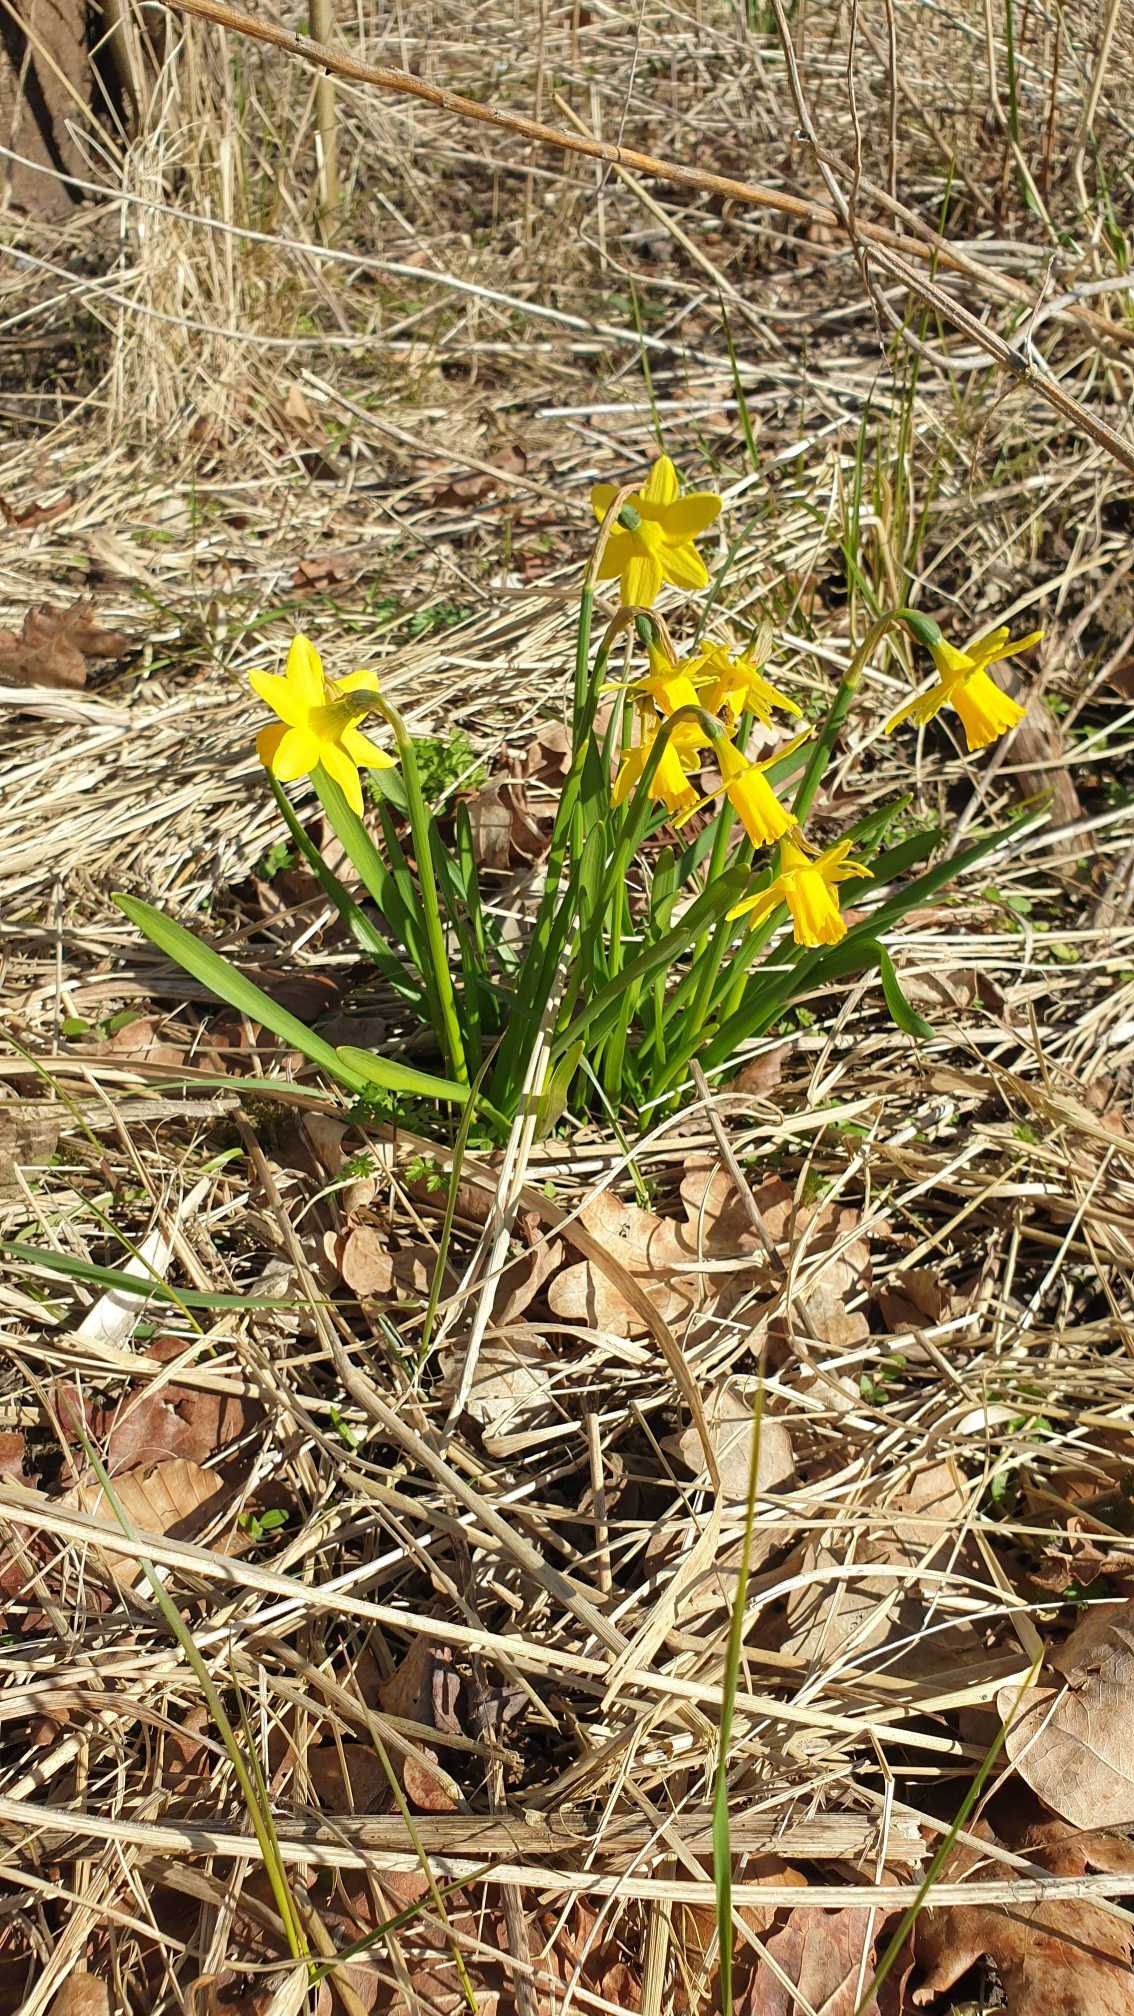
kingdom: Plantae
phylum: Tracheophyta
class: Liliopsida
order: Asparagales
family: Amaryllidaceae
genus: Narcissus
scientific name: Narcissus cyclazetta
